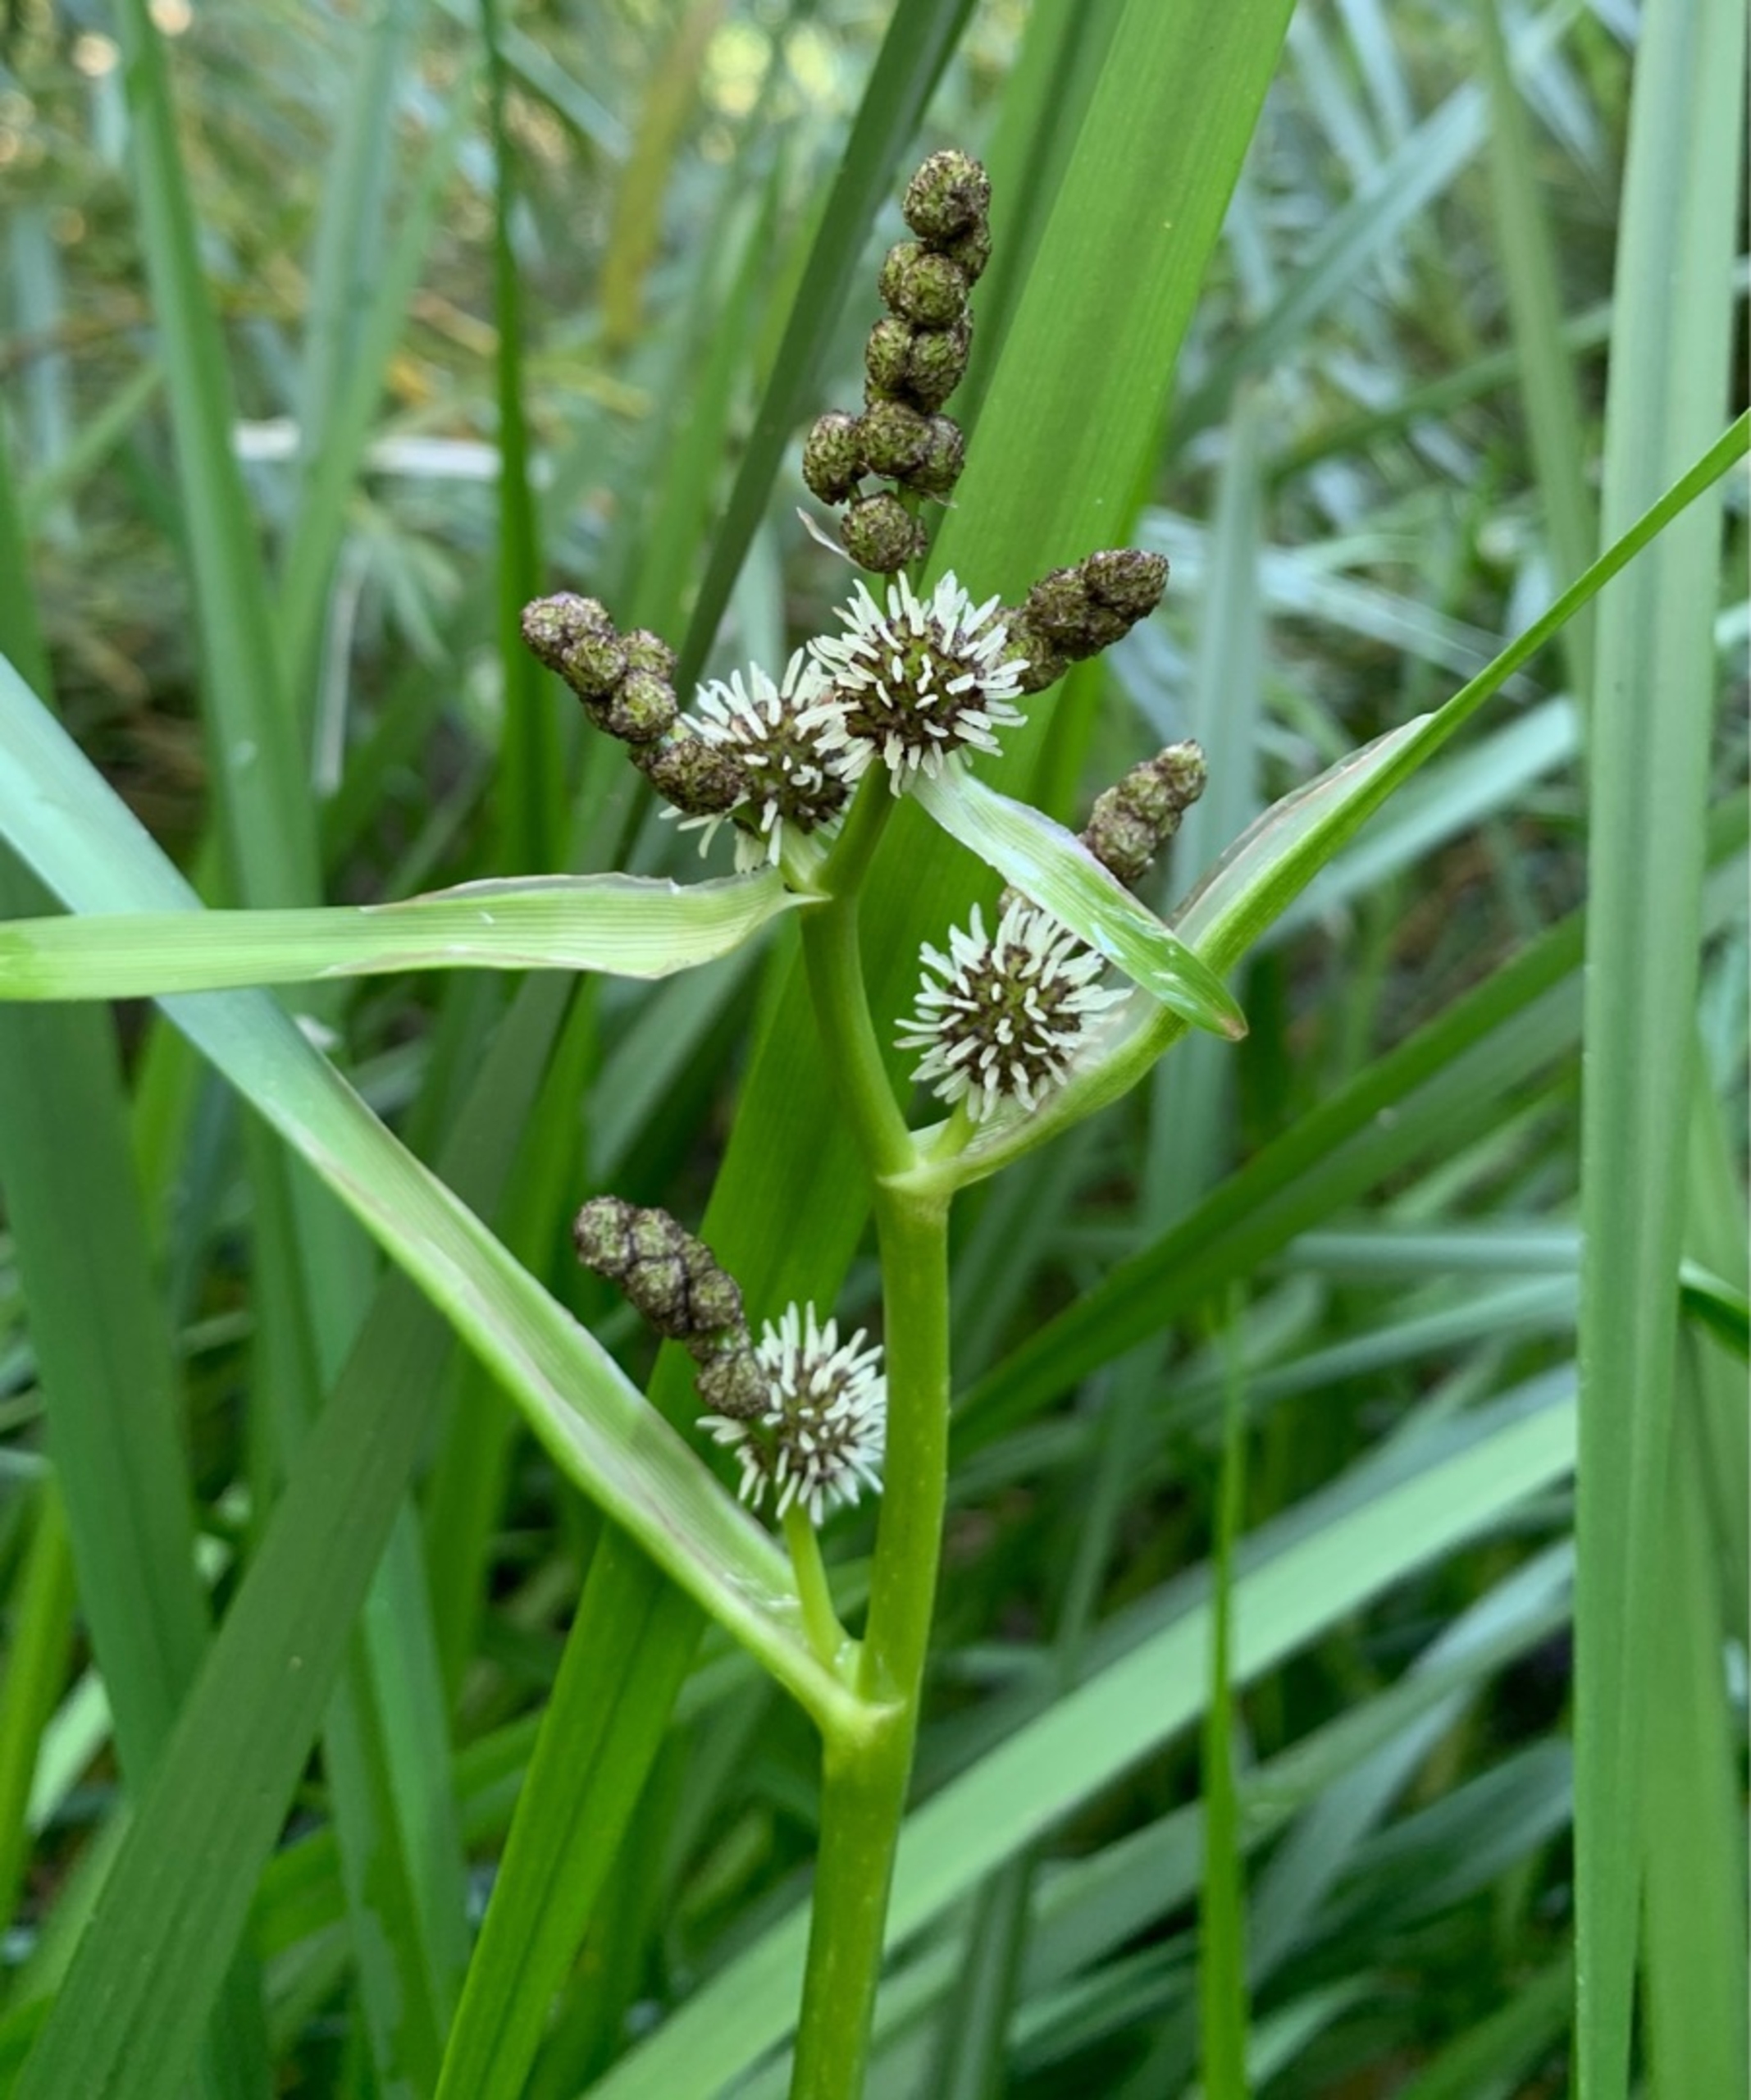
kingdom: Plantae
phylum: Tracheophyta
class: Liliopsida
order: Poales
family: Typhaceae
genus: Sparganium
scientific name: Sparganium erectum
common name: Grenet pindsvineknop
